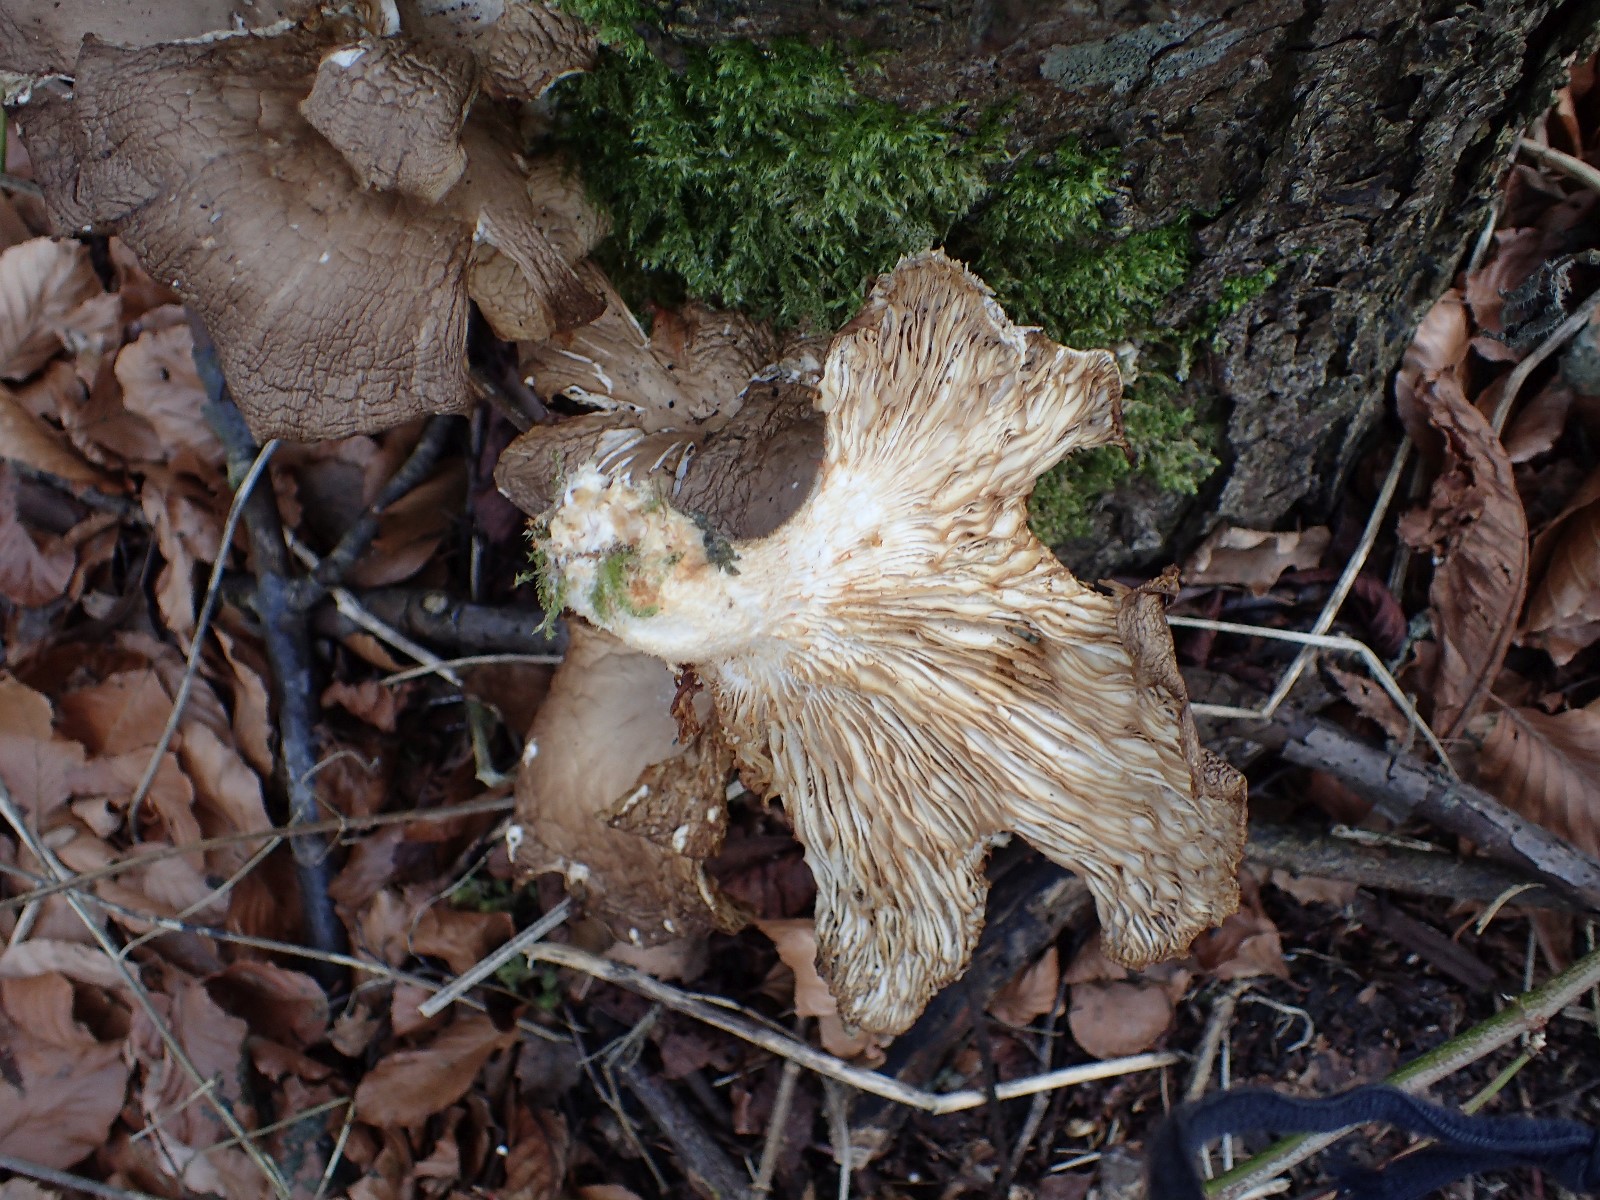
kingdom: Fungi
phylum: Basidiomycota
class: Agaricomycetes
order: Agaricales
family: Pleurotaceae
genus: Pleurotus
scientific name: Pleurotus ostreatus
